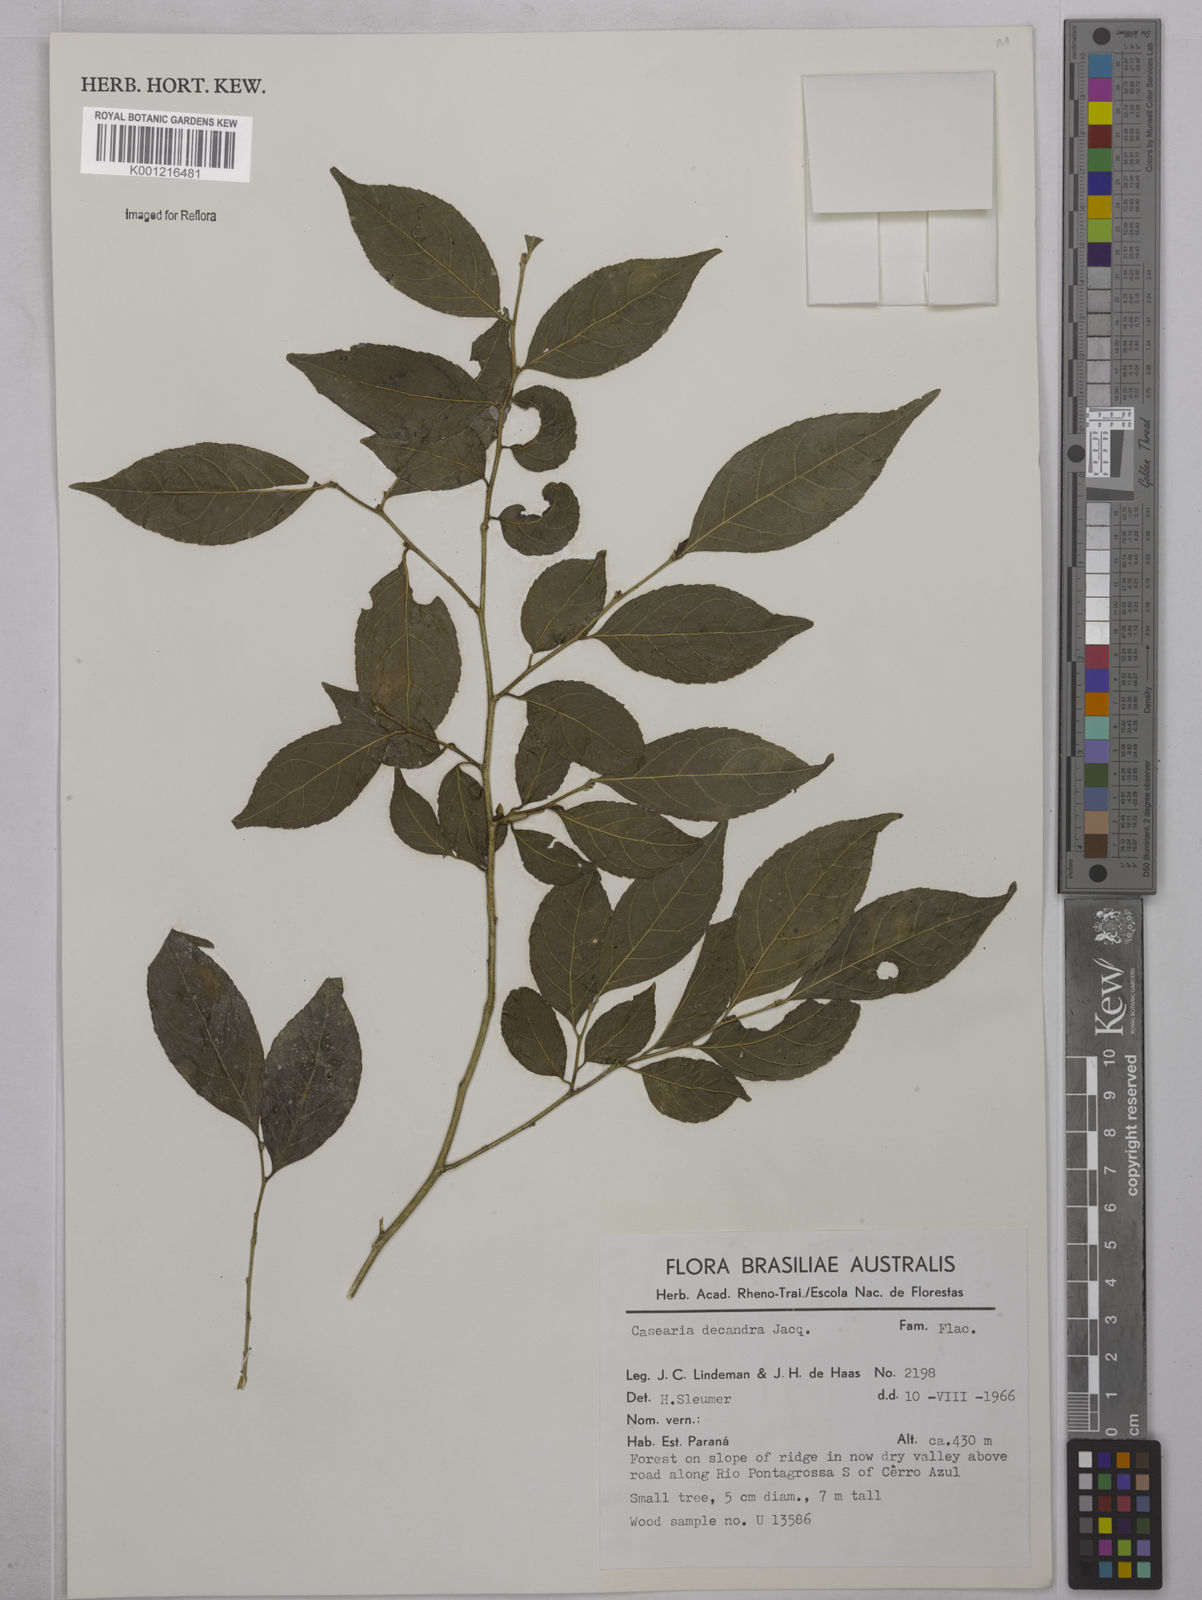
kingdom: Plantae
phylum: Tracheophyta
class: Magnoliopsida
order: Malpighiales
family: Salicaceae
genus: Casearia
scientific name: Casearia decandra
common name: Crack open
